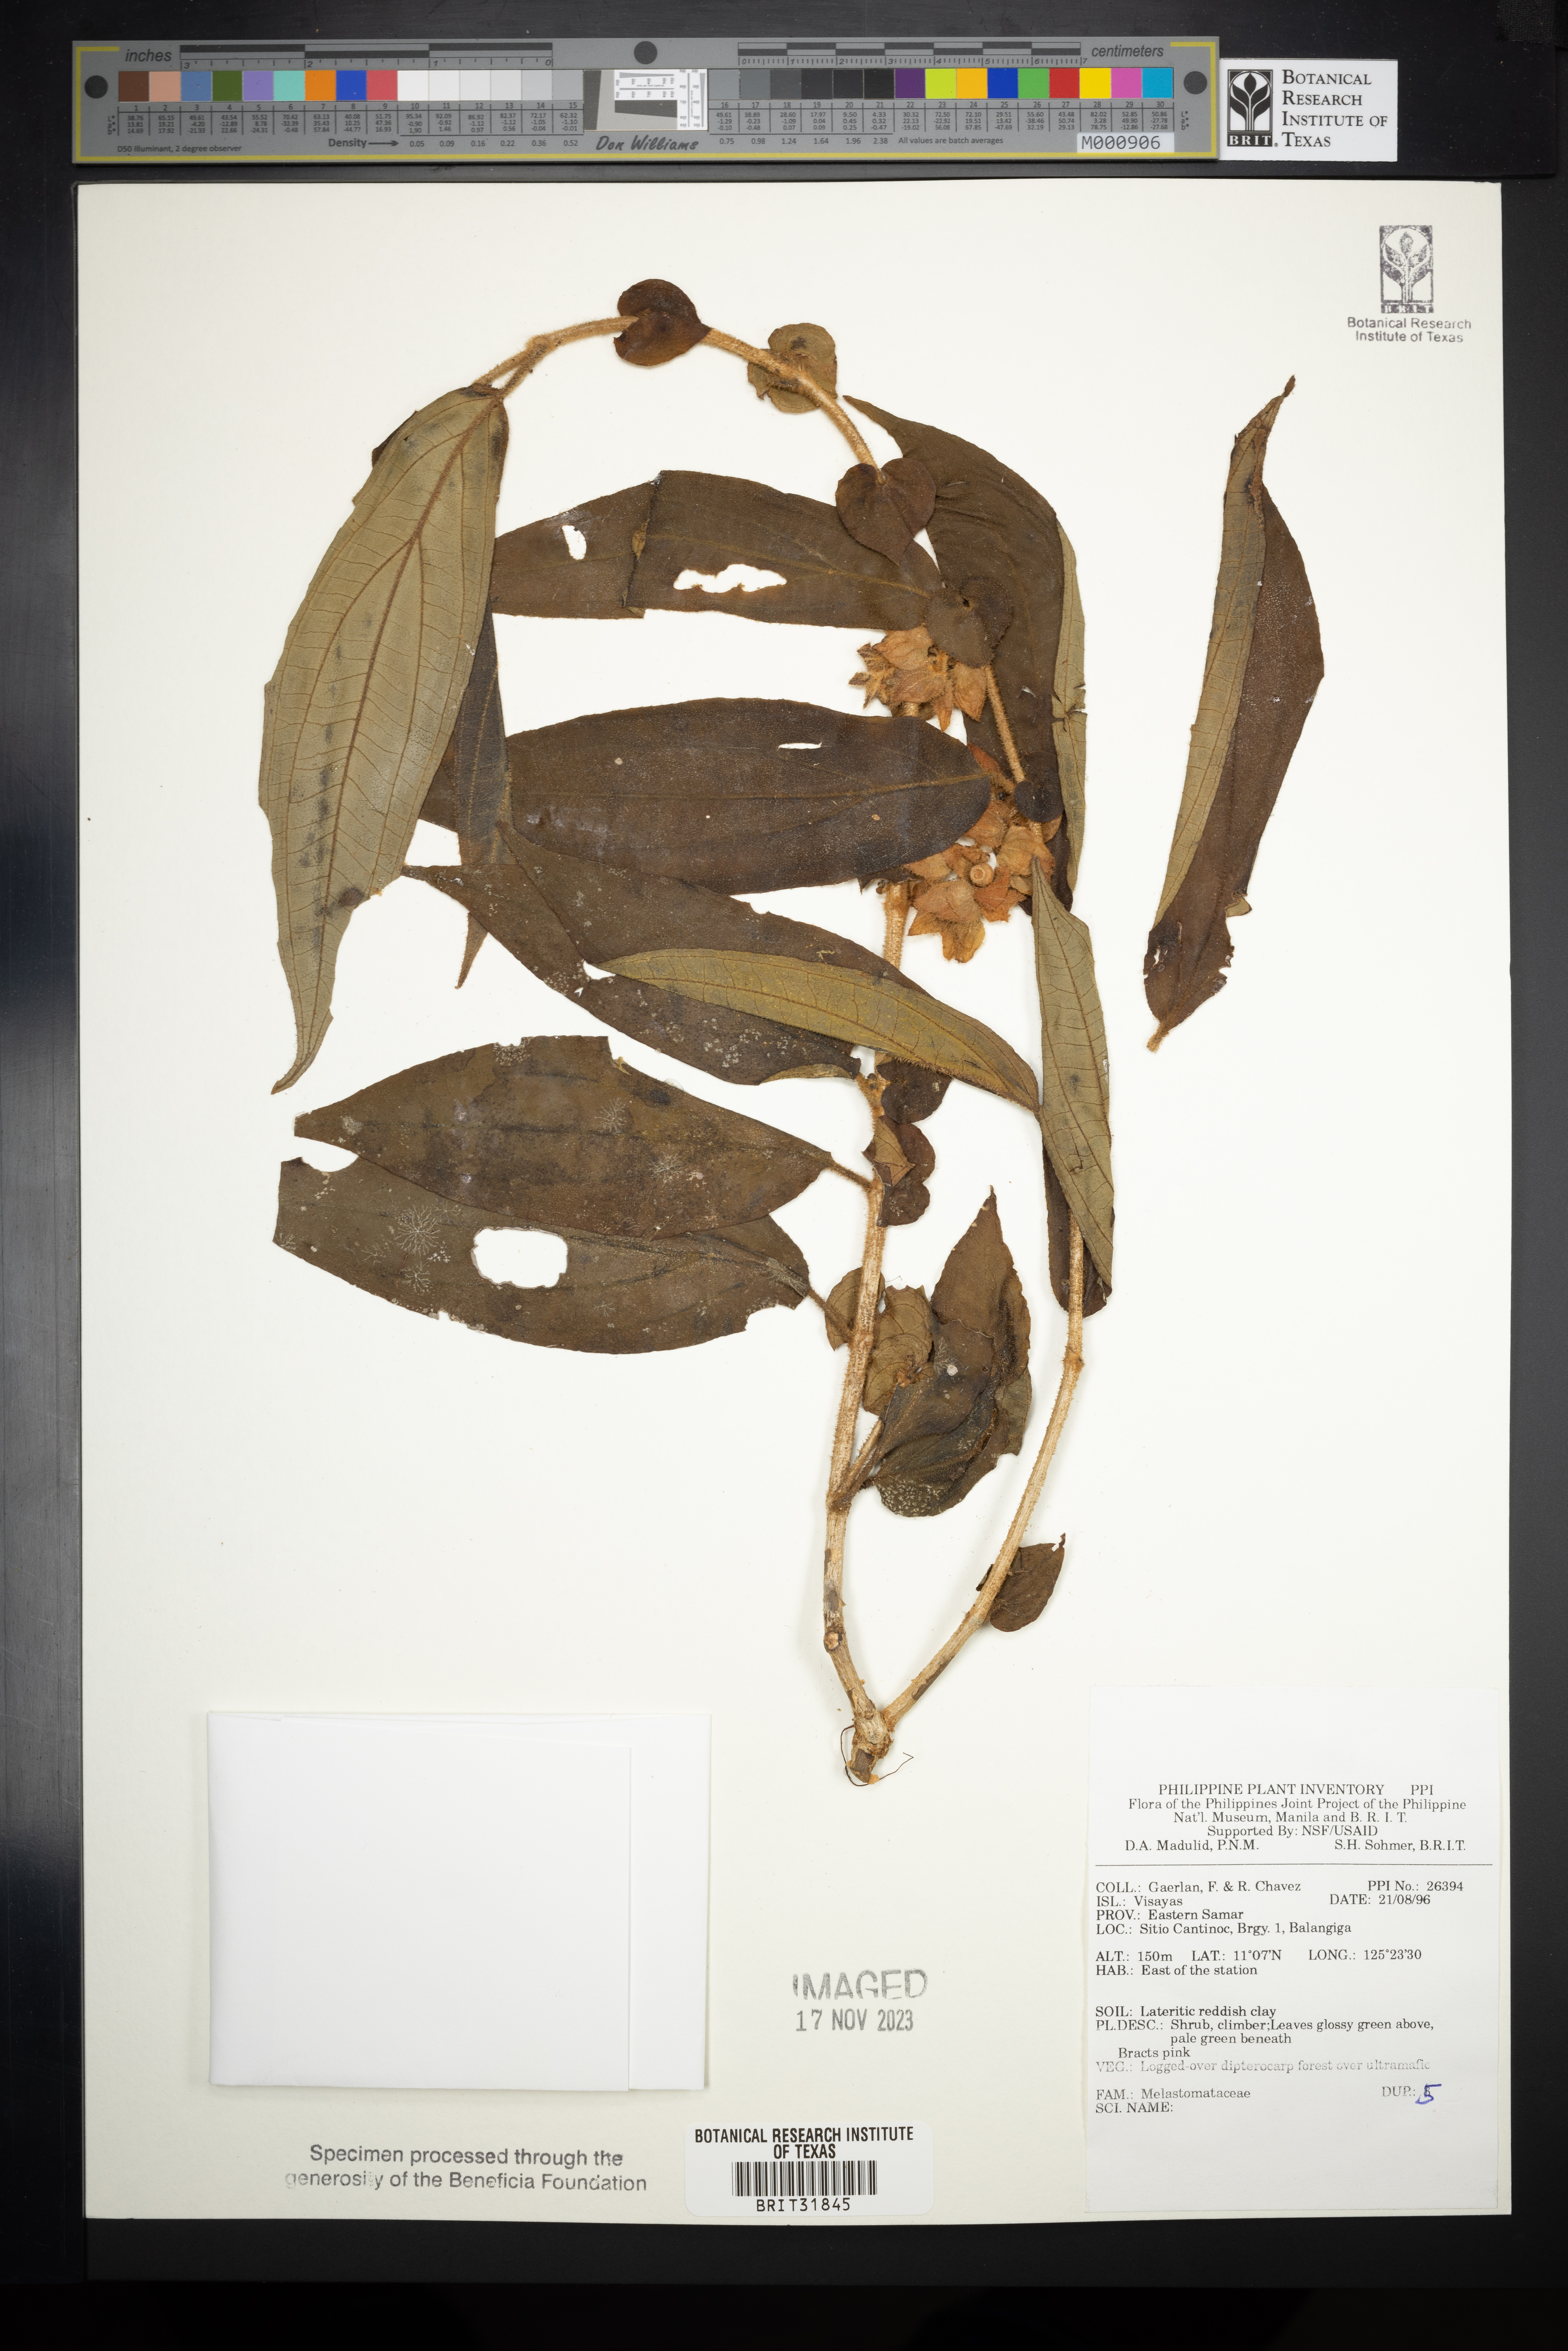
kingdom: Plantae
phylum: Tracheophyta
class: Magnoliopsida
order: Myrtales
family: Melastomataceae
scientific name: Melastomataceae
